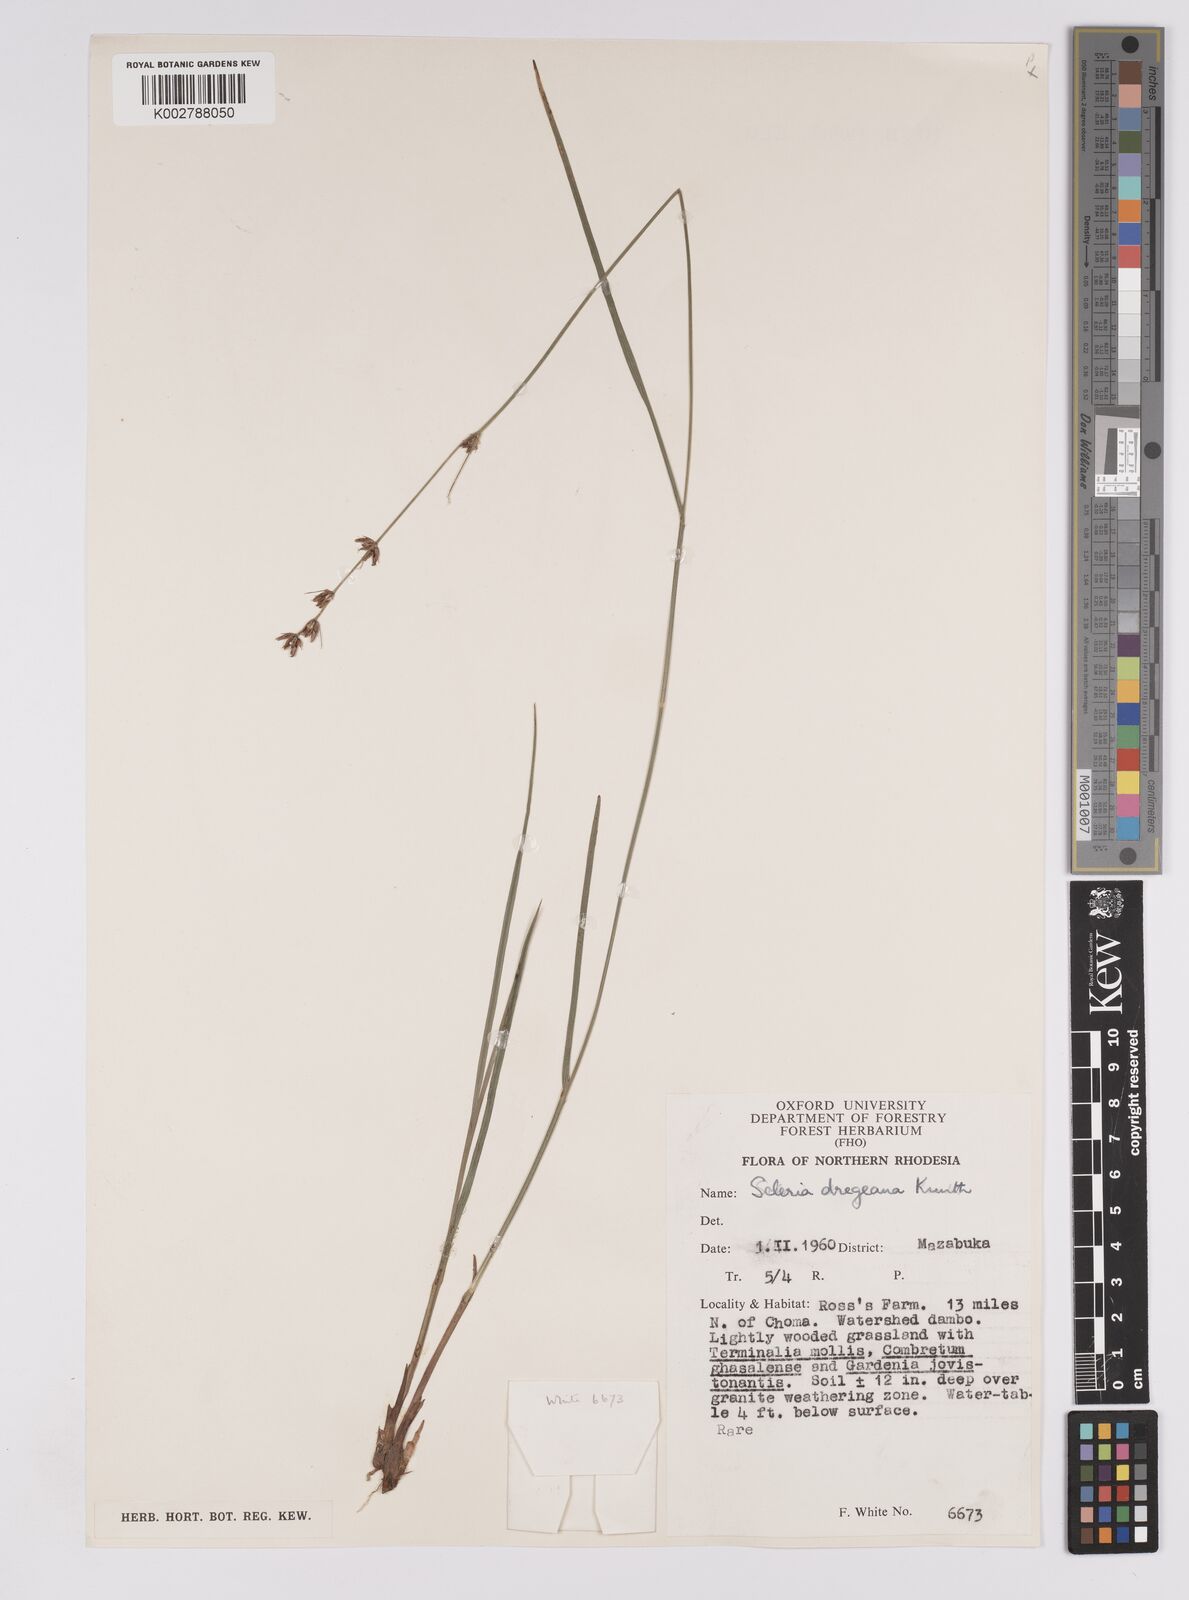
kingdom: Plantae
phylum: Tracheophyta
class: Liliopsida
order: Poales
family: Cyperaceae
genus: Scleria
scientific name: Scleria dregeana
